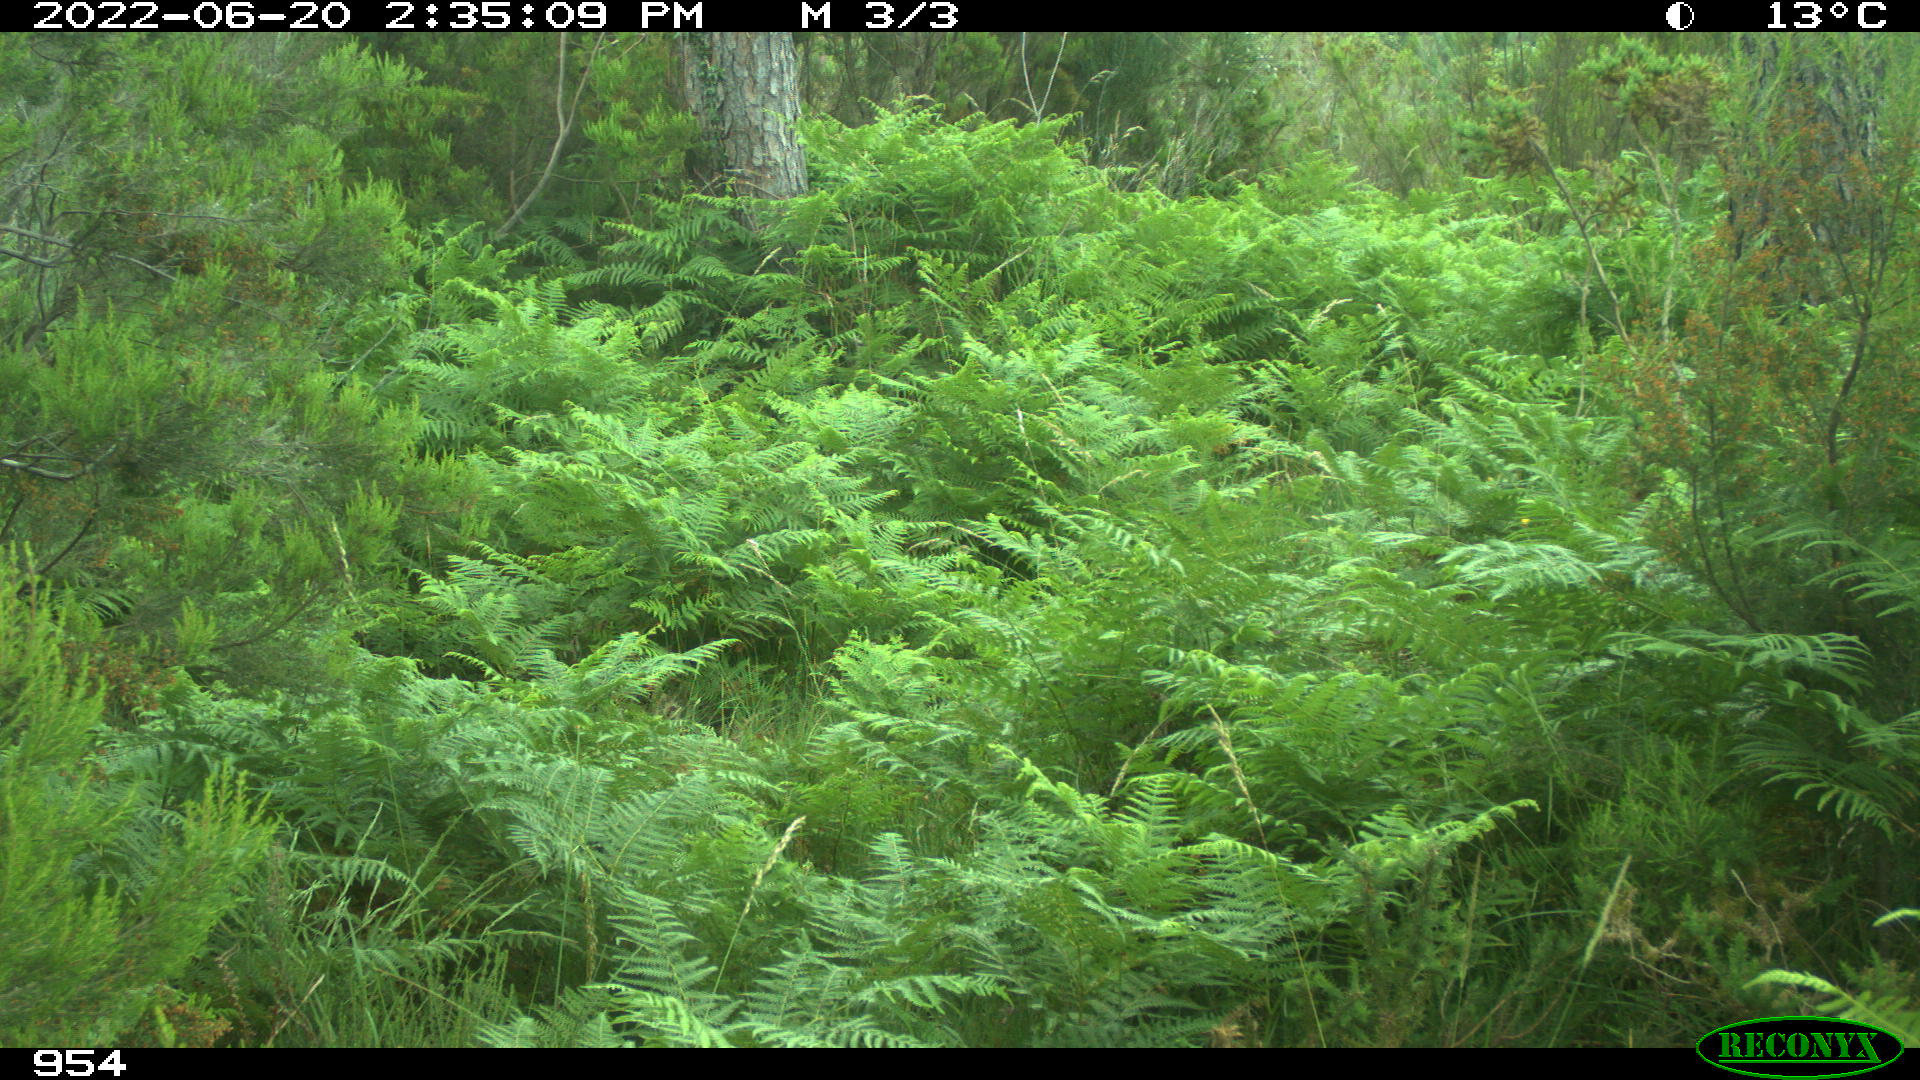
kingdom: Animalia
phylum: Chordata
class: Mammalia
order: Artiodactyla
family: Cervidae
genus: Capreolus
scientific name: Capreolus capreolus
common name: Western roe deer
